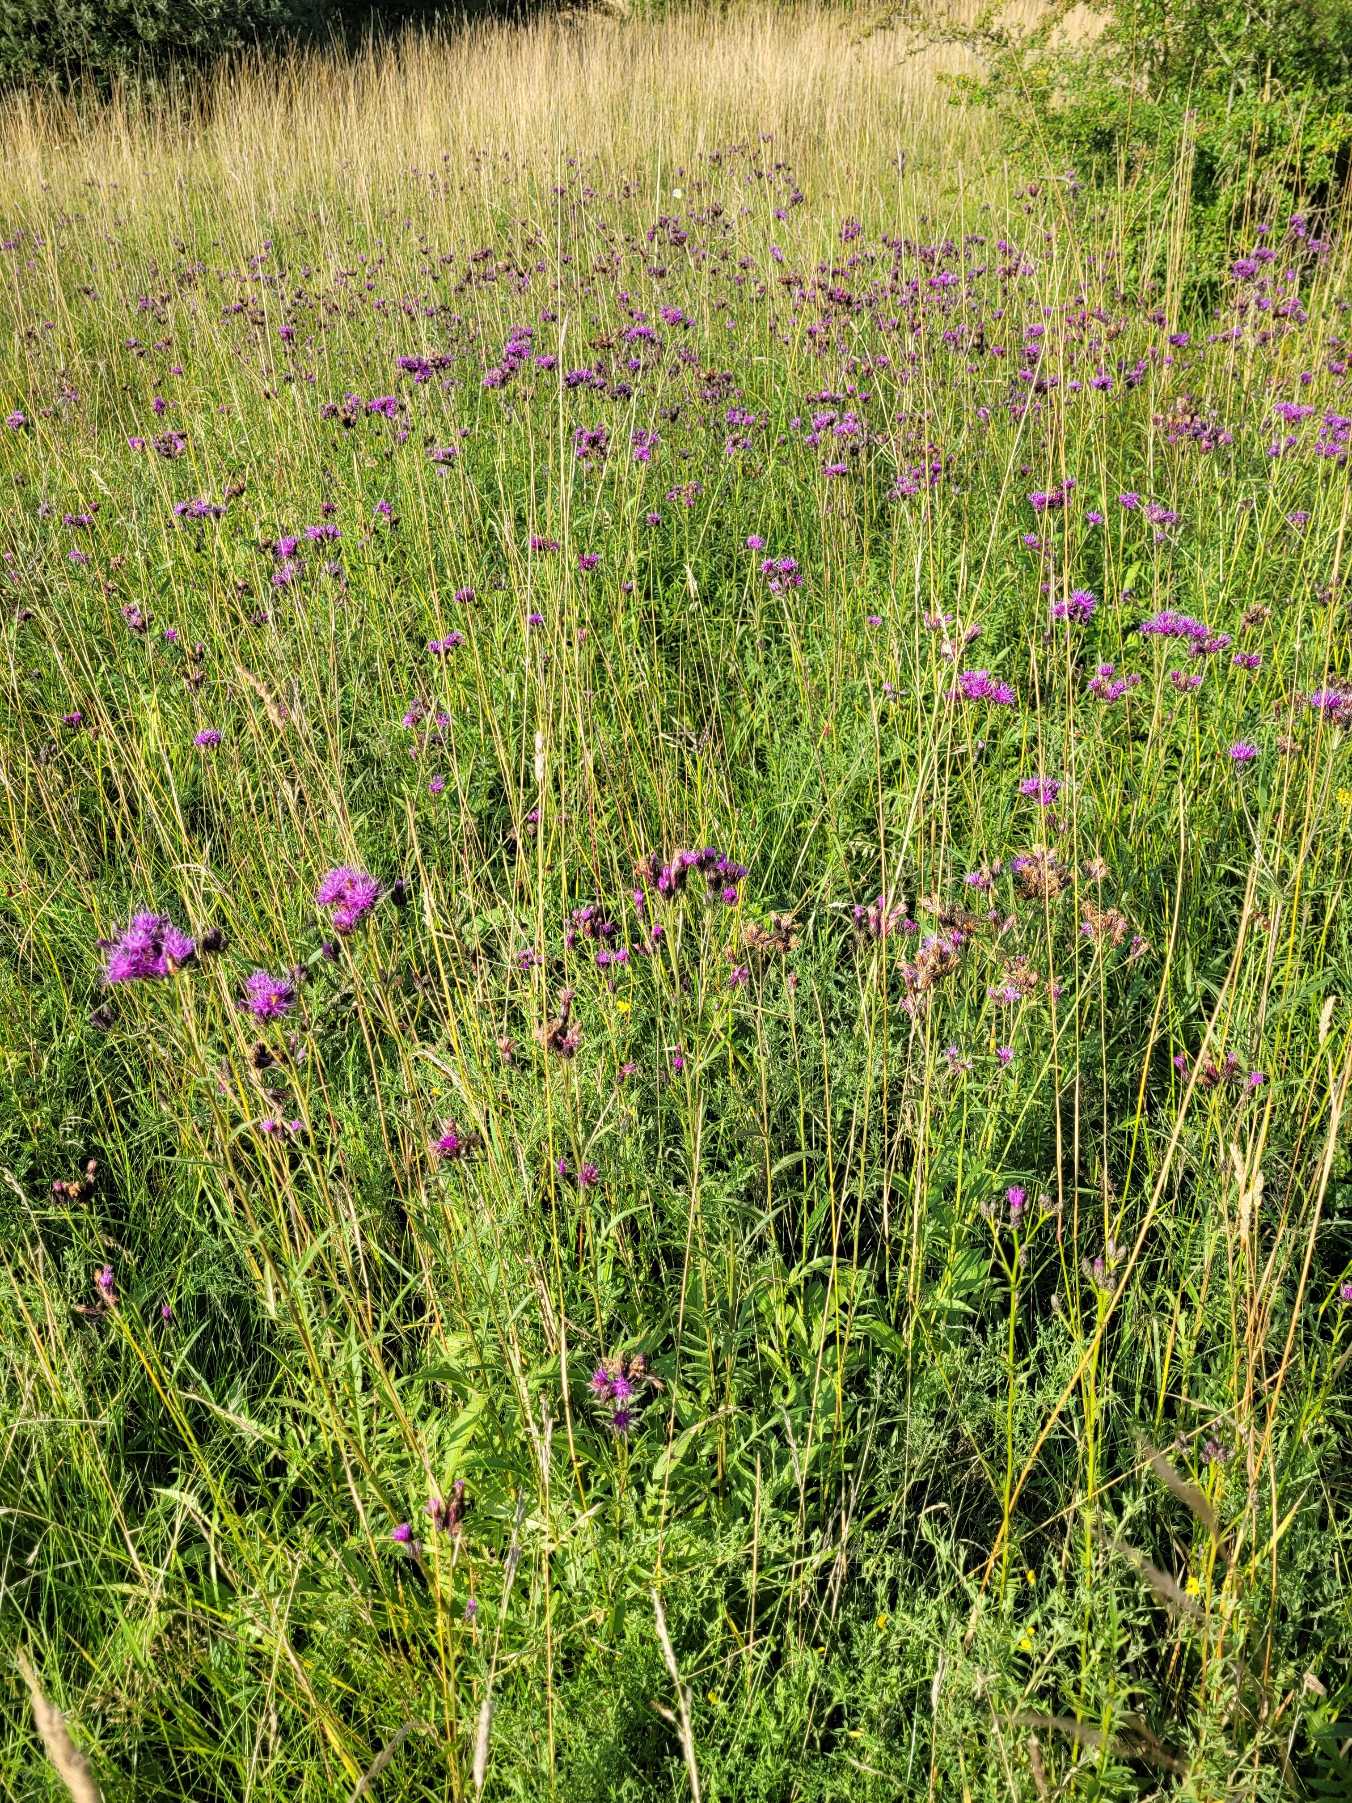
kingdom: Plantae
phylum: Tracheophyta
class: Magnoliopsida
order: Asterales
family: Asteraceae
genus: Serratula
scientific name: Serratula tinctoria
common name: Eng-skær
